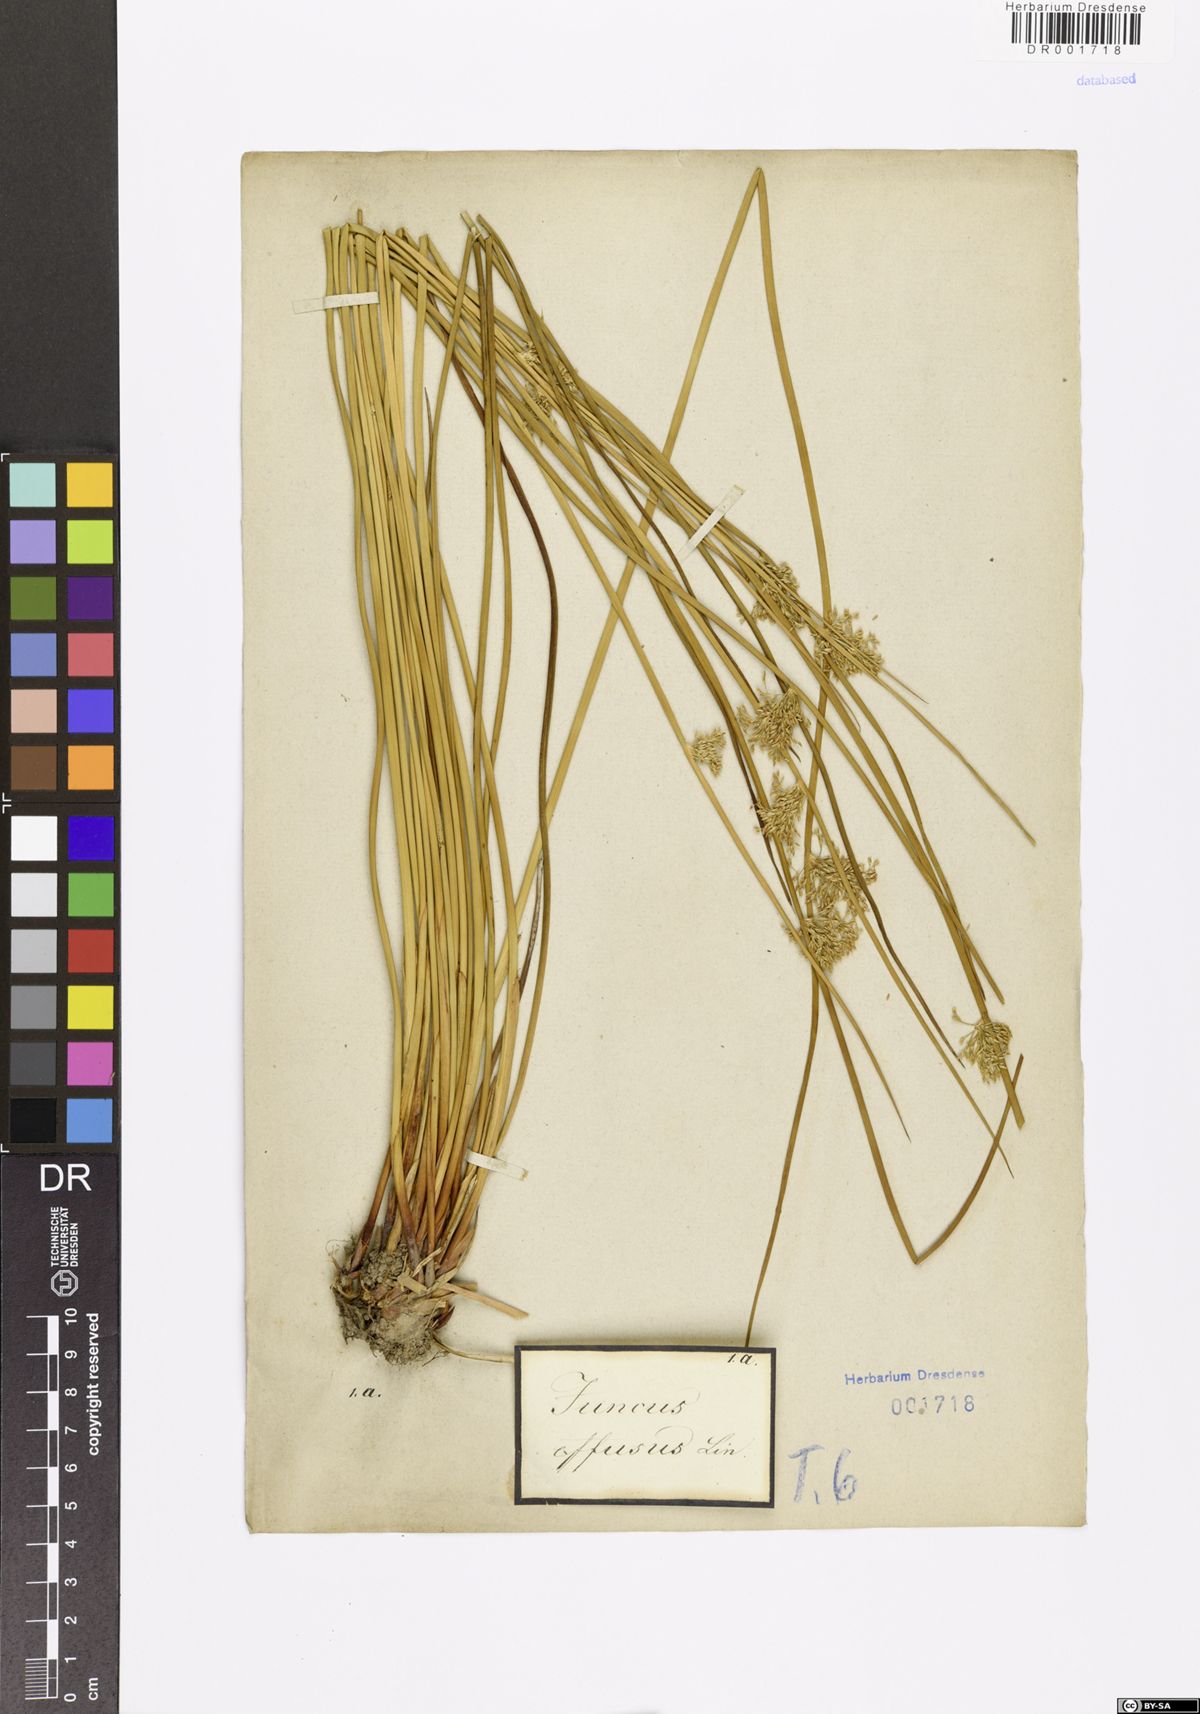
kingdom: Plantae
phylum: Tracheophyta
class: Liliopsida
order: Poales
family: Juncaceae
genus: Juncus
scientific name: Juncus effusus
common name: Soft rush
